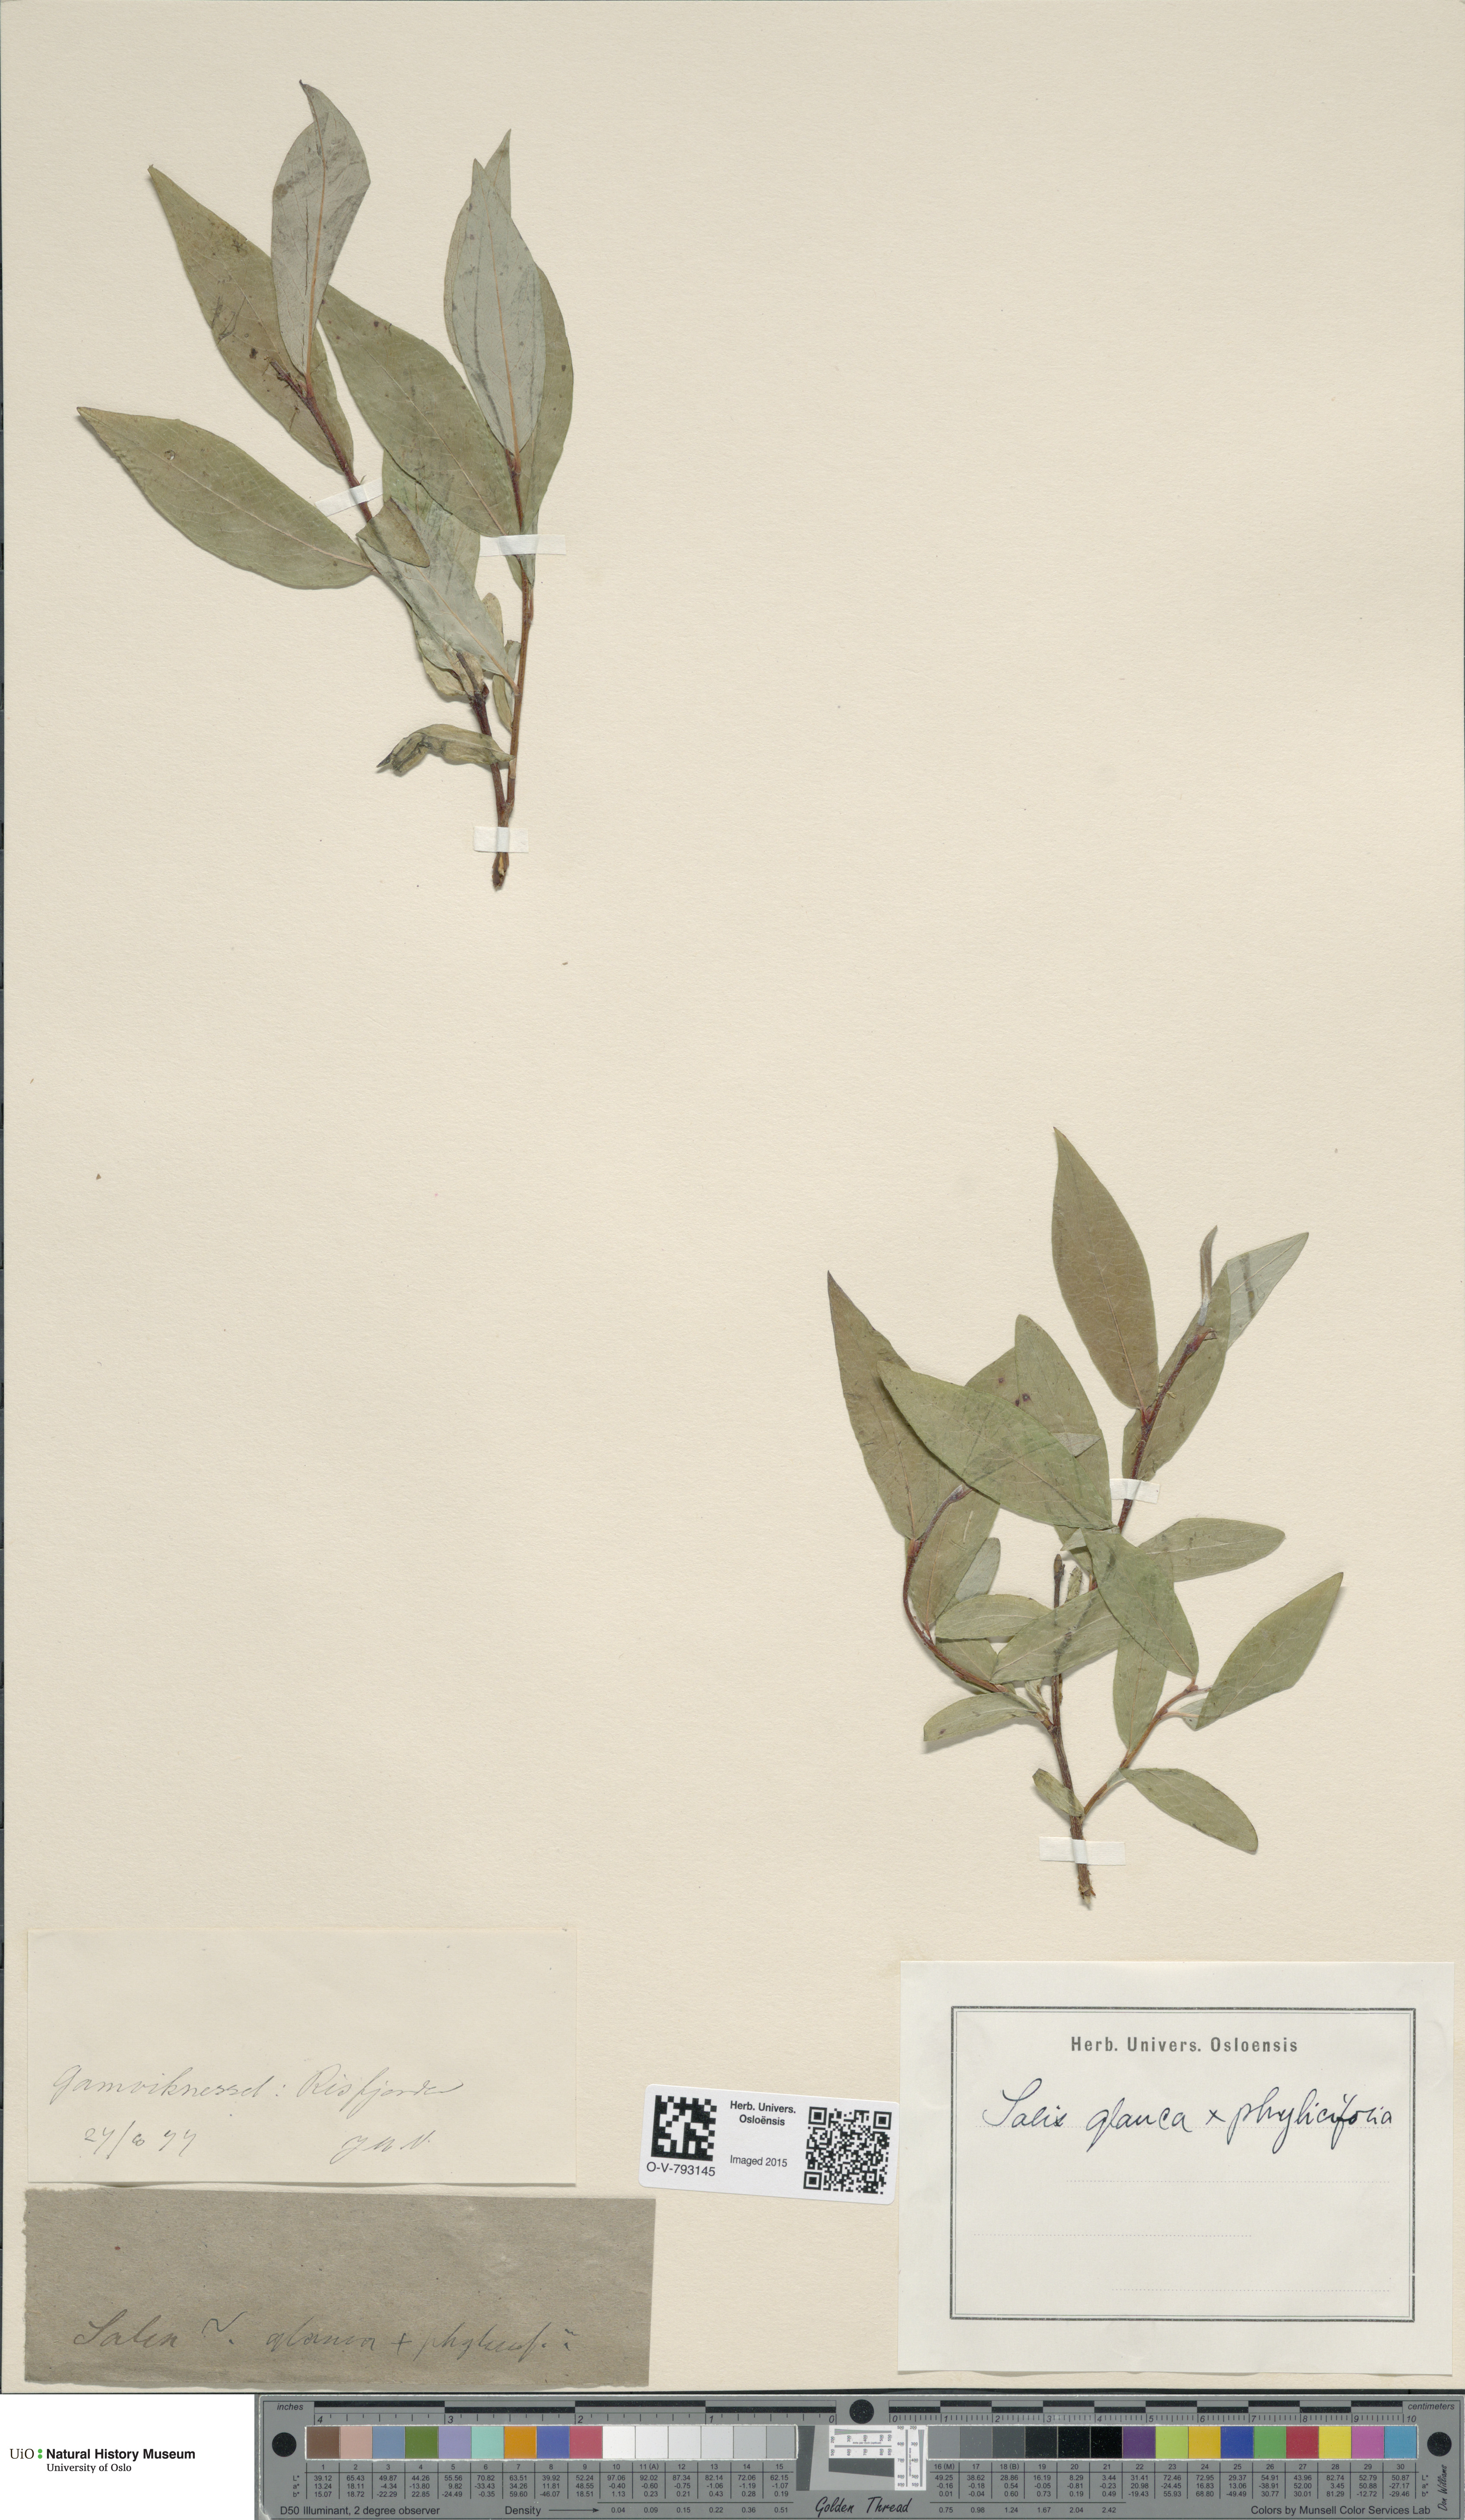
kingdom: Plantae
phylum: Tracheophyta
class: Magnoliopsida
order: Malpighiales
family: Salicaceae
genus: Salix
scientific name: Salix
